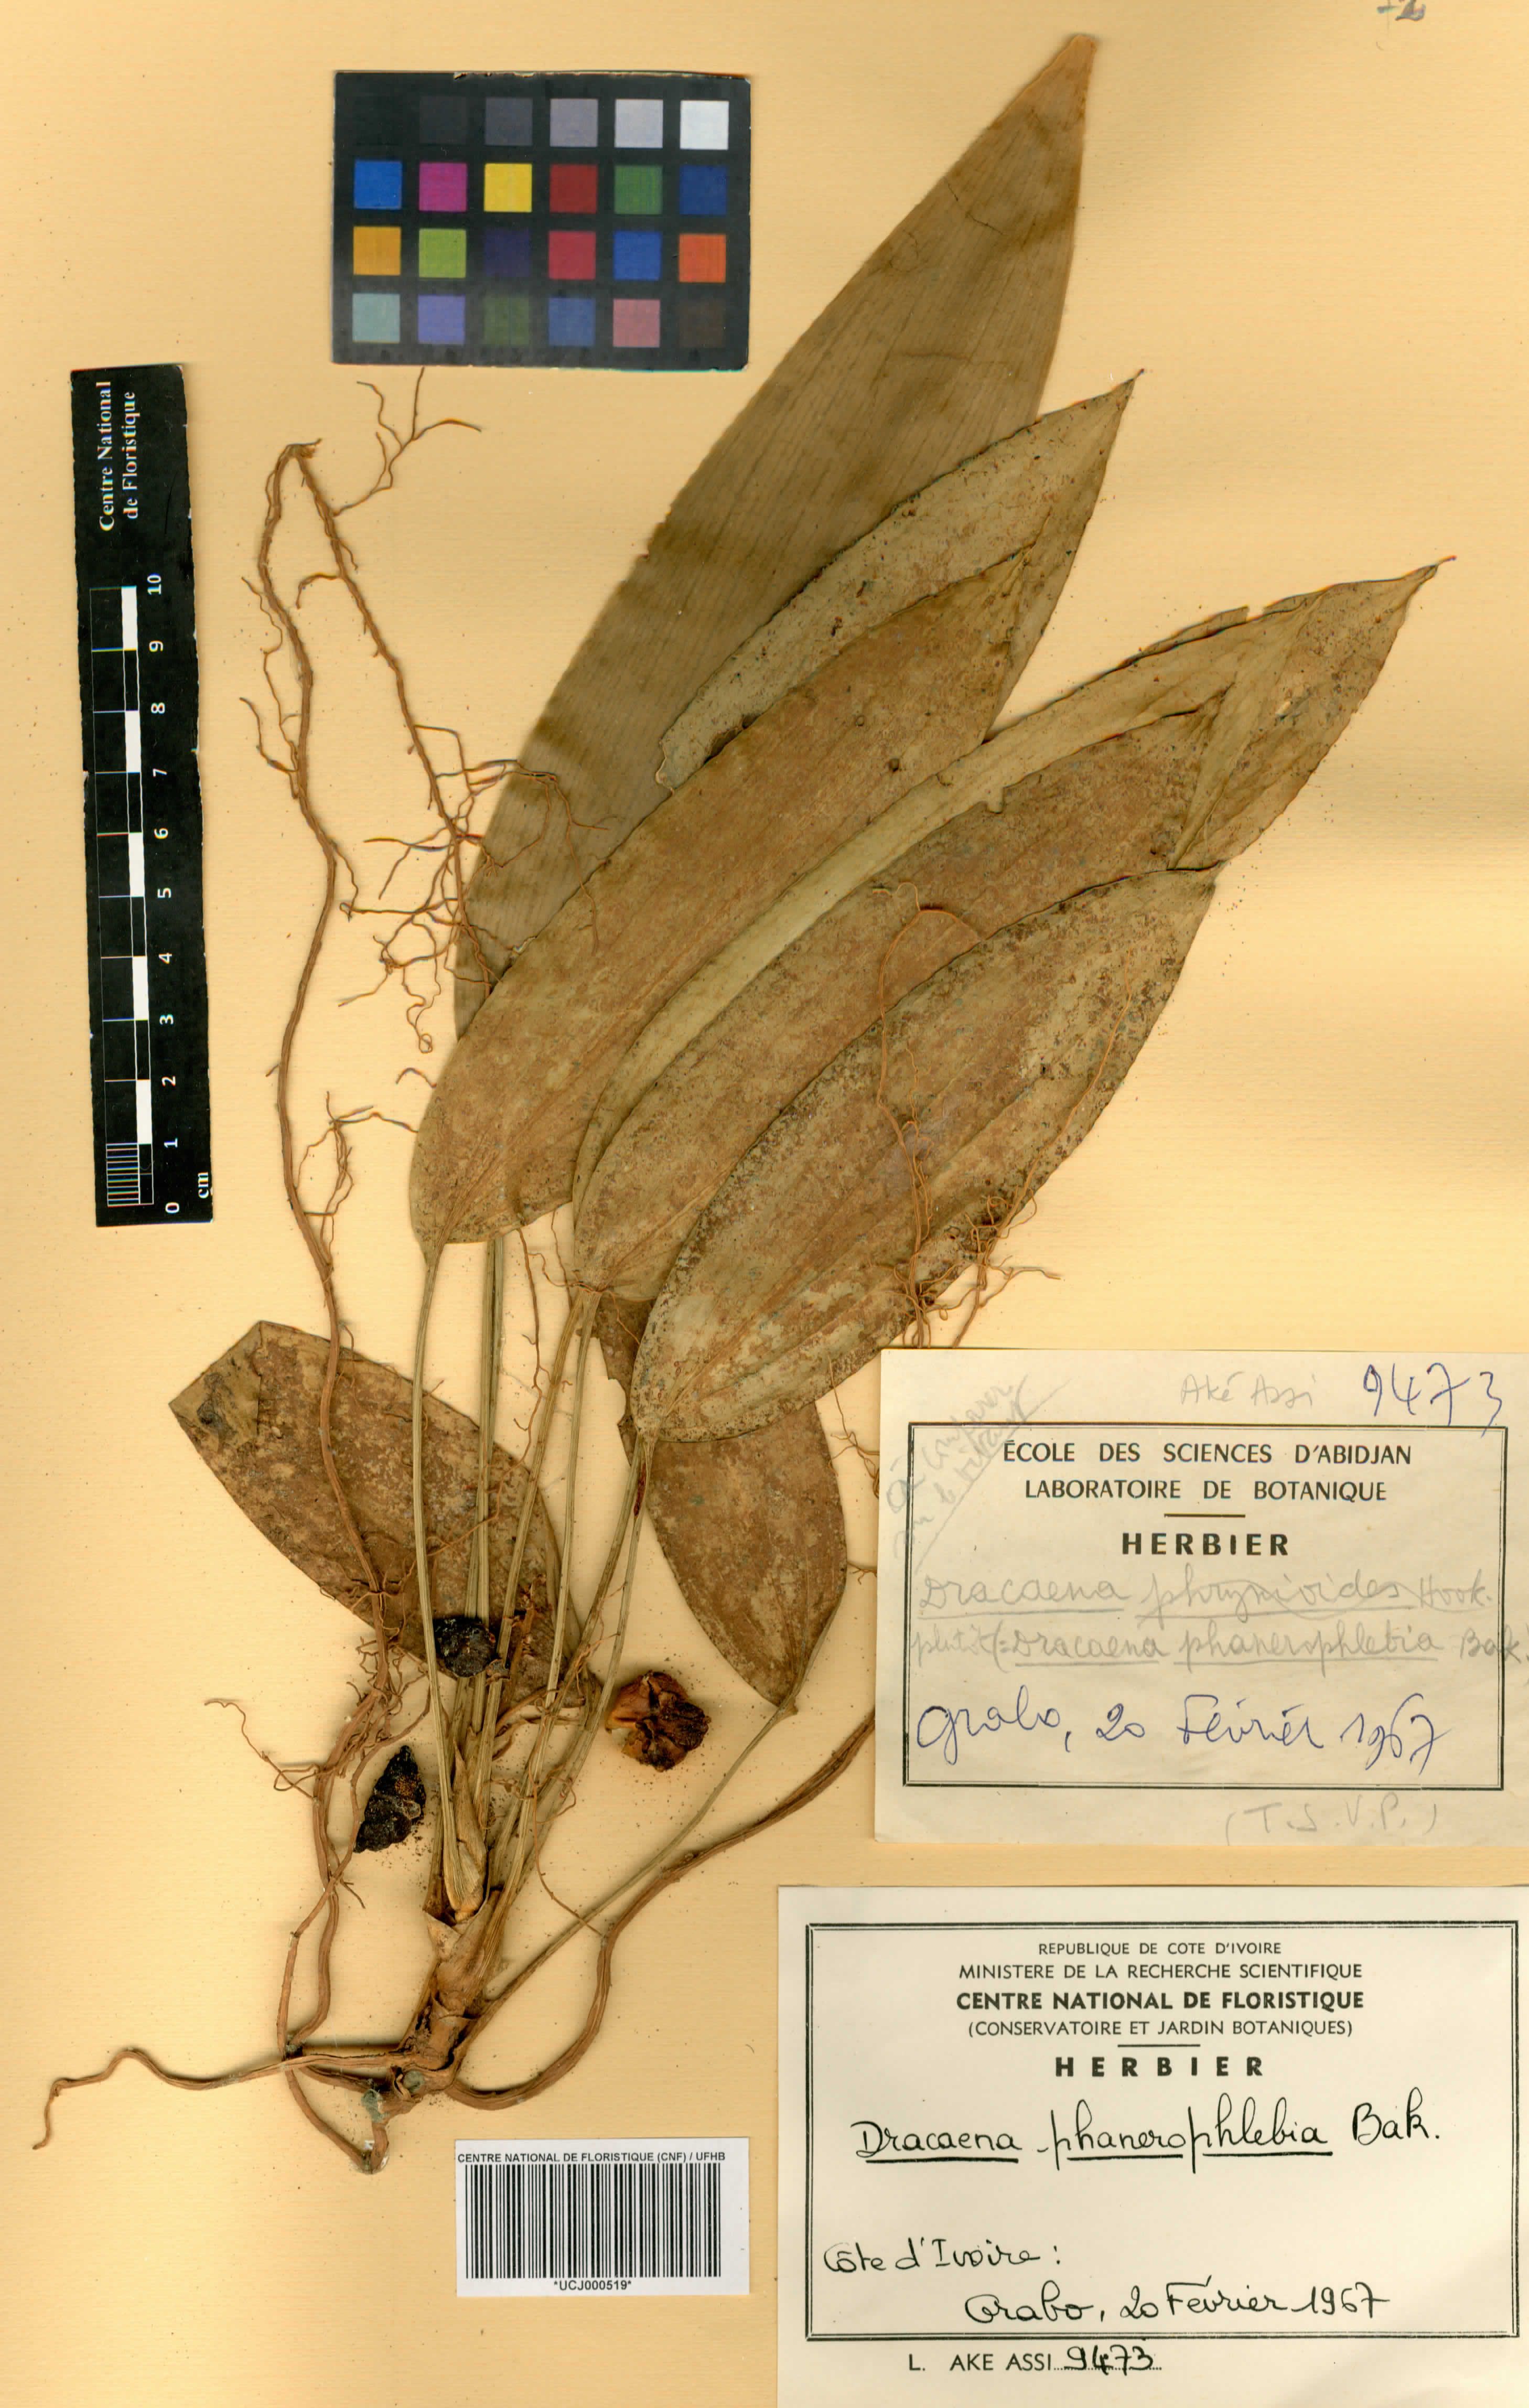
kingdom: Plantae
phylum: Tracheophyta
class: Liliopsida
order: Asparagales
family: Asparagaceae
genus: Dracaena
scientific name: Dracaena phanerophlebia
